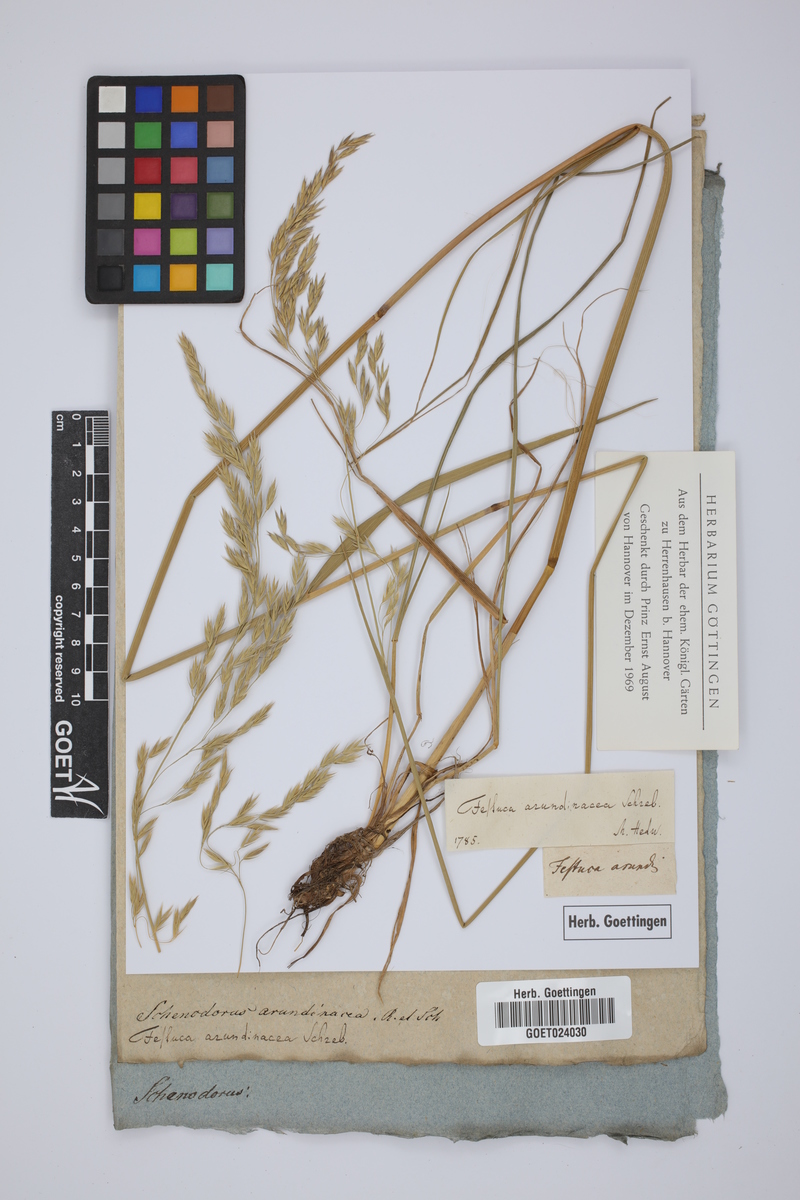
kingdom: Plantae
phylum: Tracheophyta
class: Liliopsida
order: Poales
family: Poaceae
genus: Lolium
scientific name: Lolium arundinaceum
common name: Reed fescue
